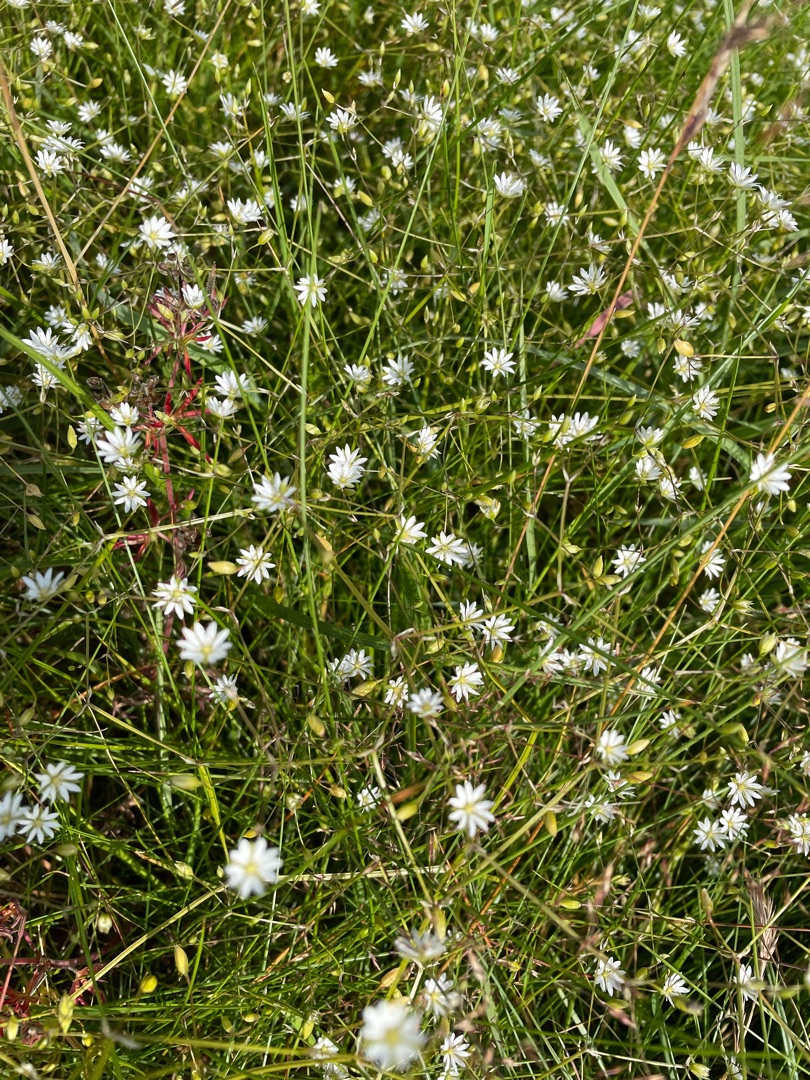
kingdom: Plantae
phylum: Tracheophyta
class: Magnoliopsida
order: Caryophyllales
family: Caryophyllaceae
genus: Stellaria
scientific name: Stellaria graminea
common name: Græsbladet fladstjerne
